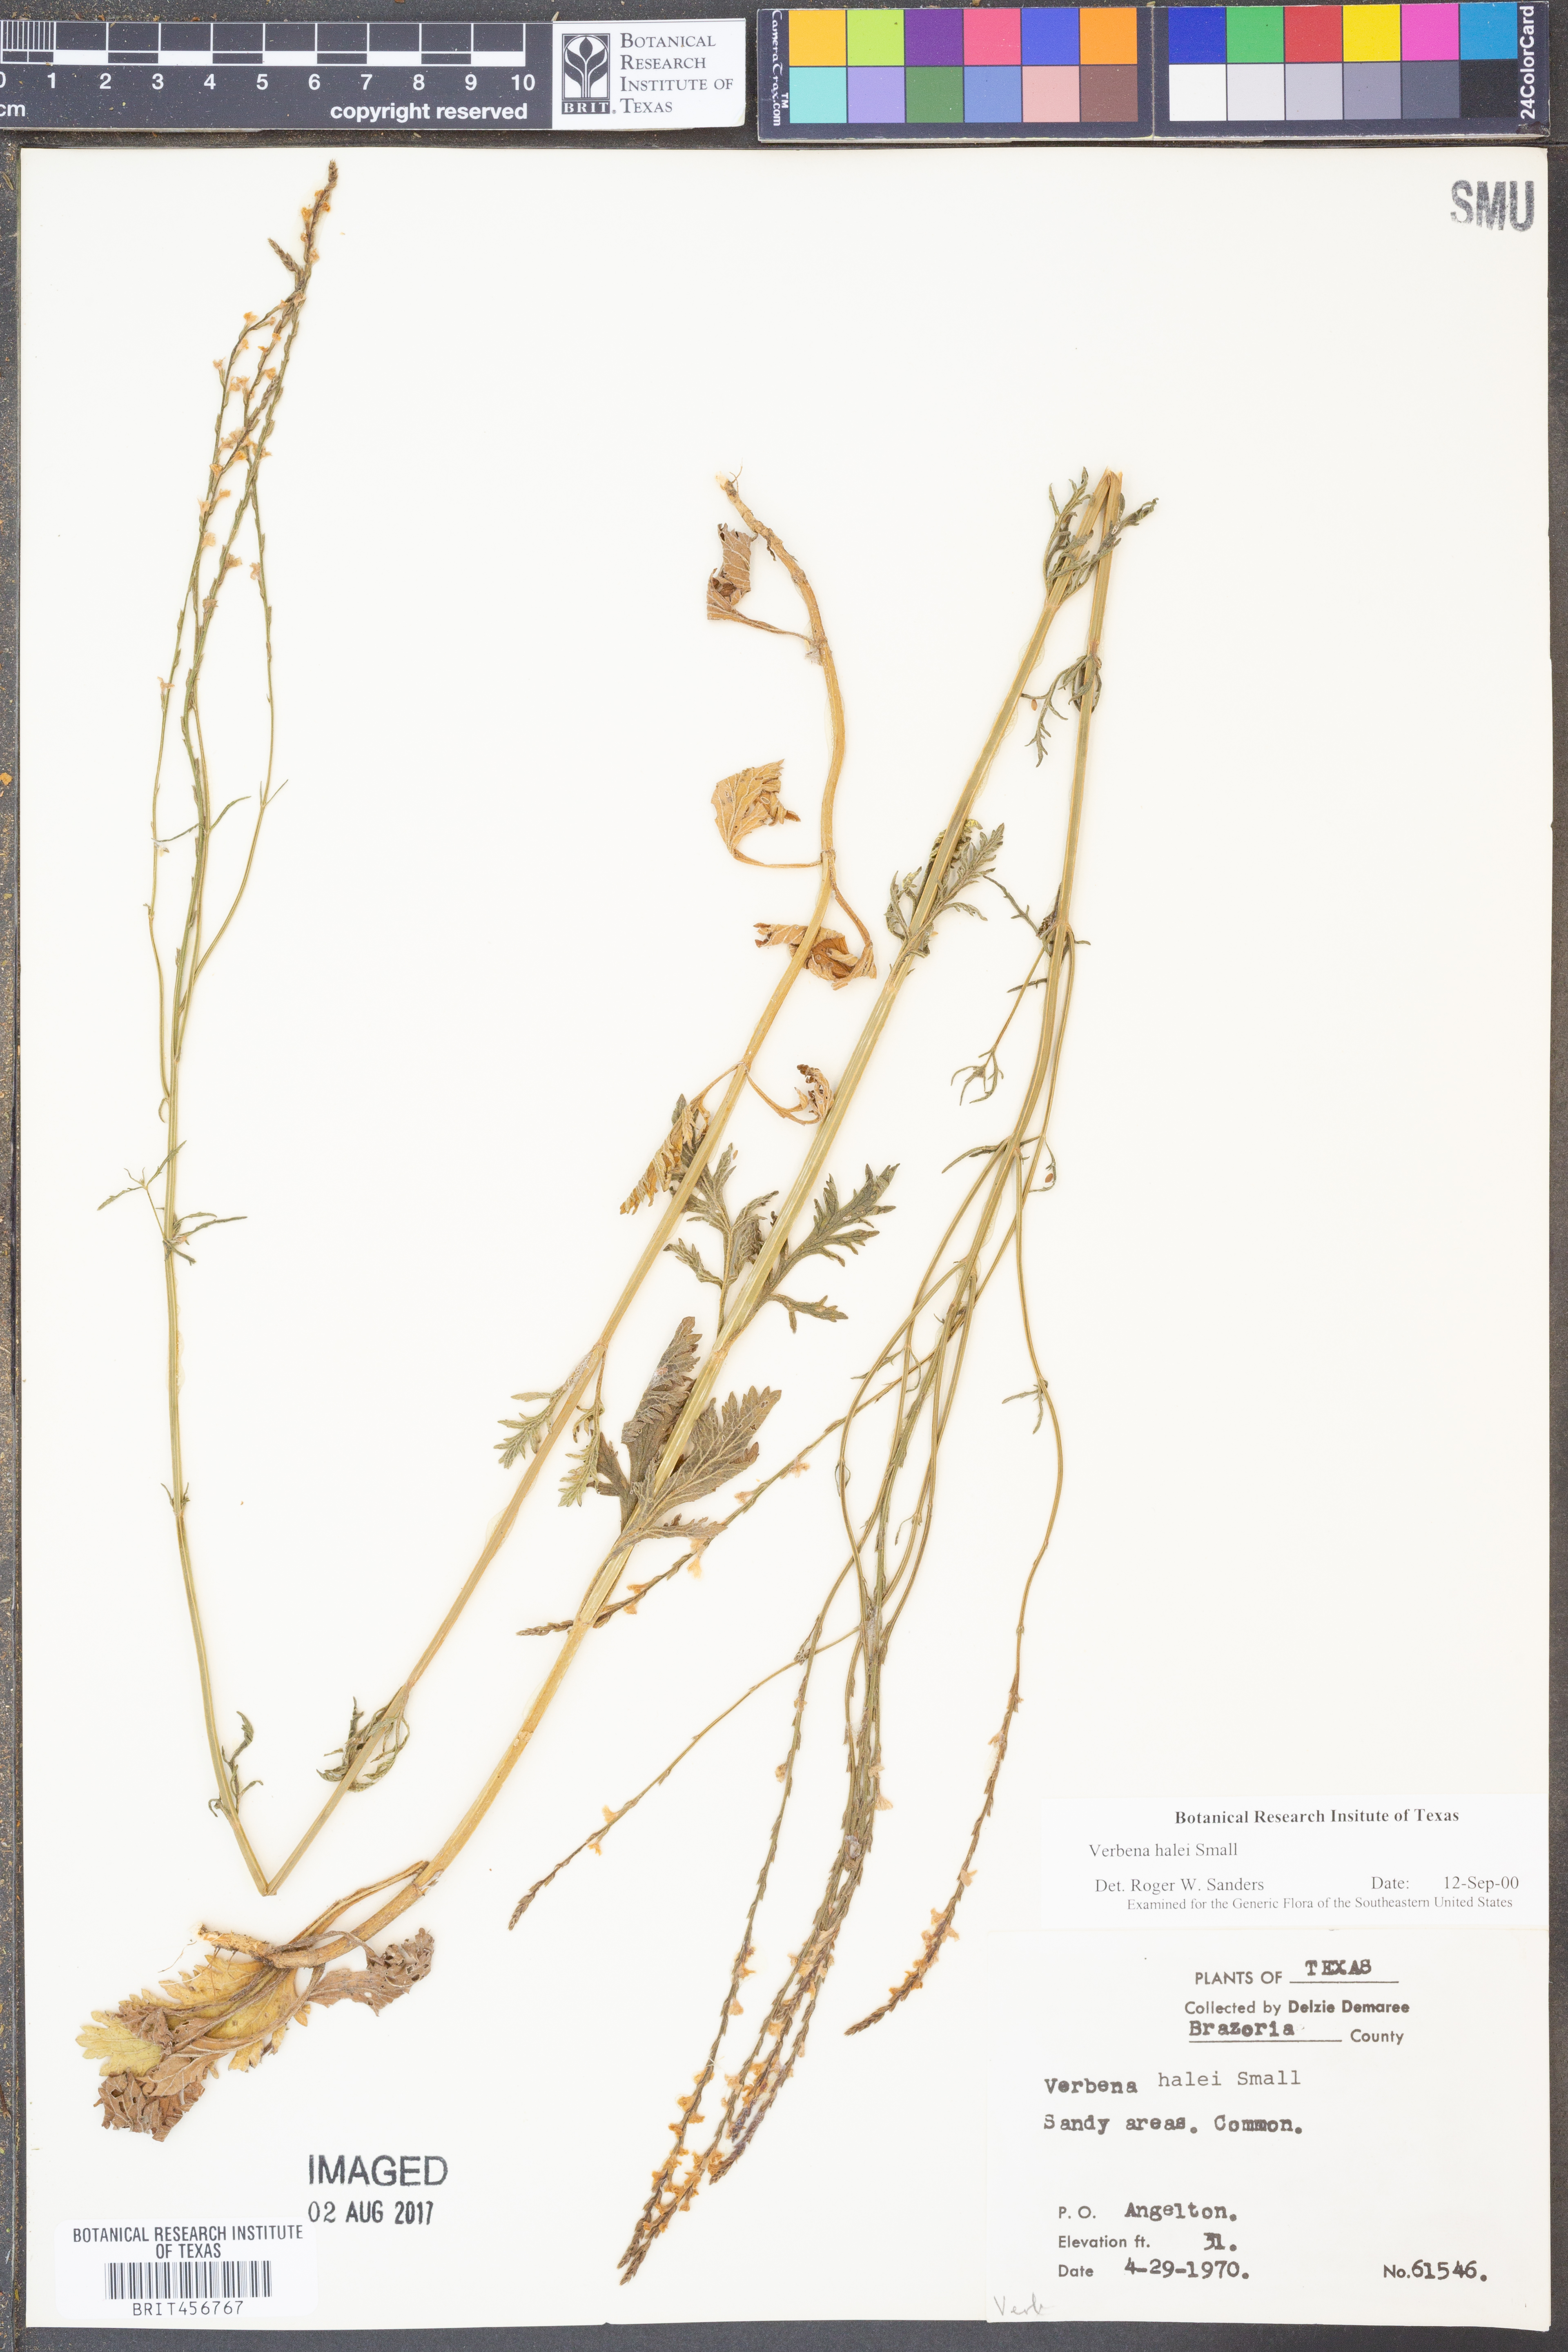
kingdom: Plantae
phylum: Tracheophyta
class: Magnoliopsida
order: Lamiales
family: Verbenaceae
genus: Verbena
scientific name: Verbena halei
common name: Texas vervain
